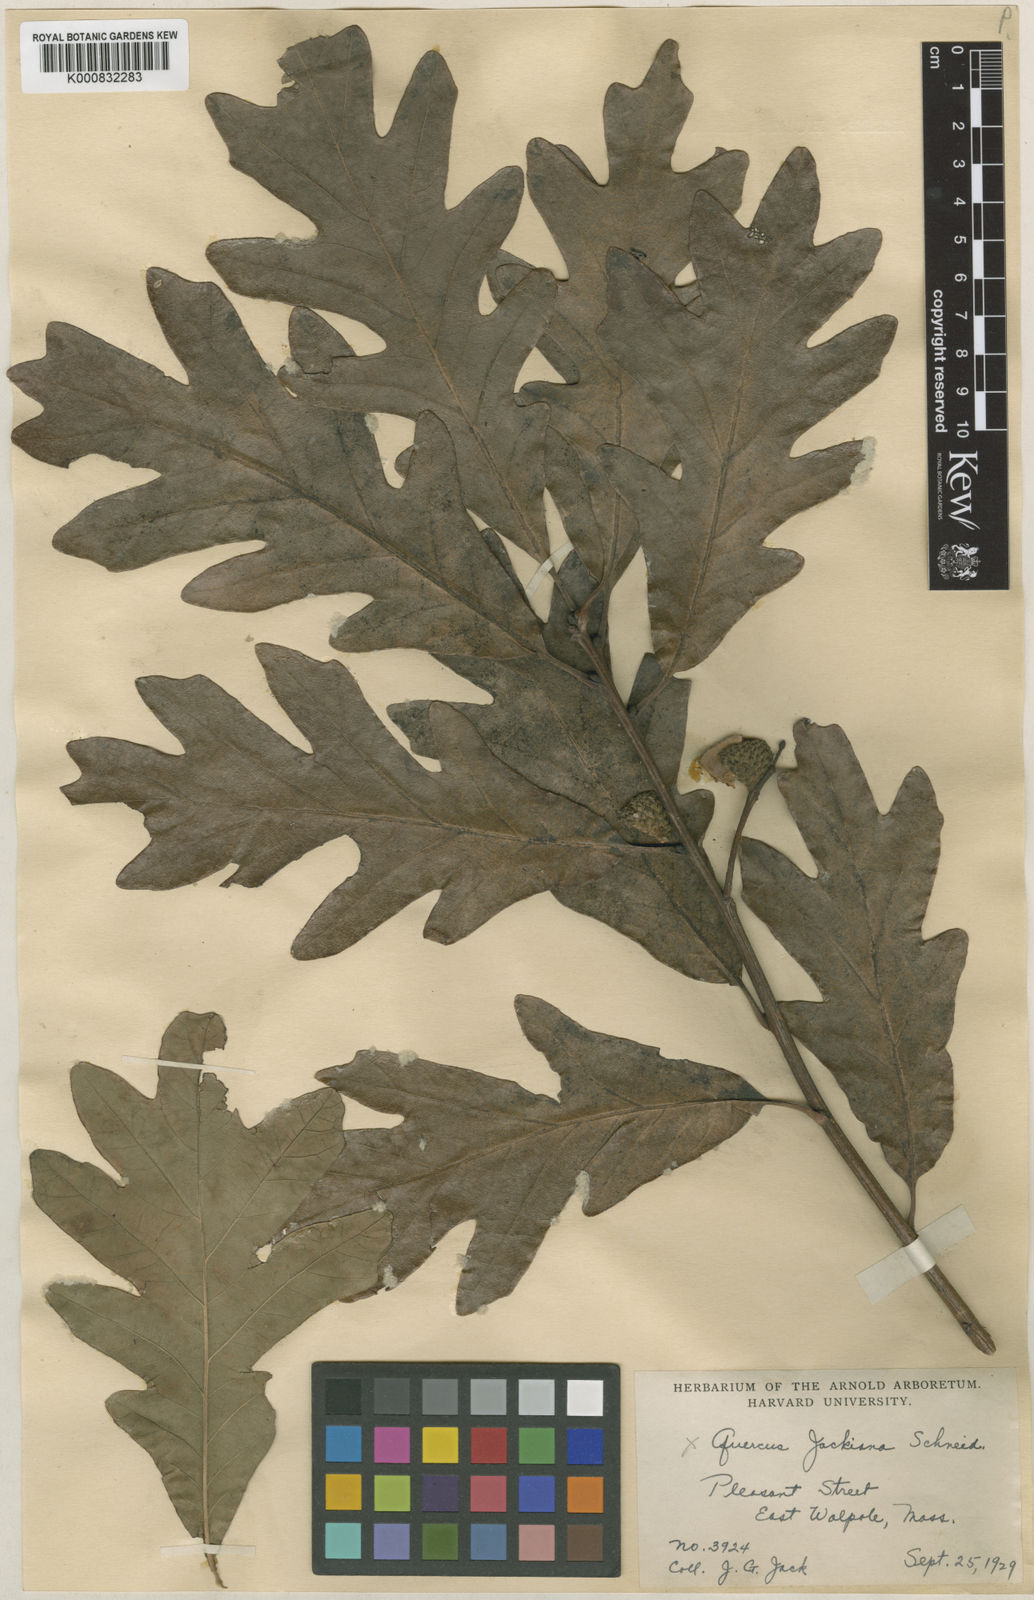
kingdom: Plantae
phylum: Tracheophyta
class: Magnoliopsida
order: Fagales
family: Fagaceae
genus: Quercus
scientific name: Quercus jackiana
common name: Jack's oak
